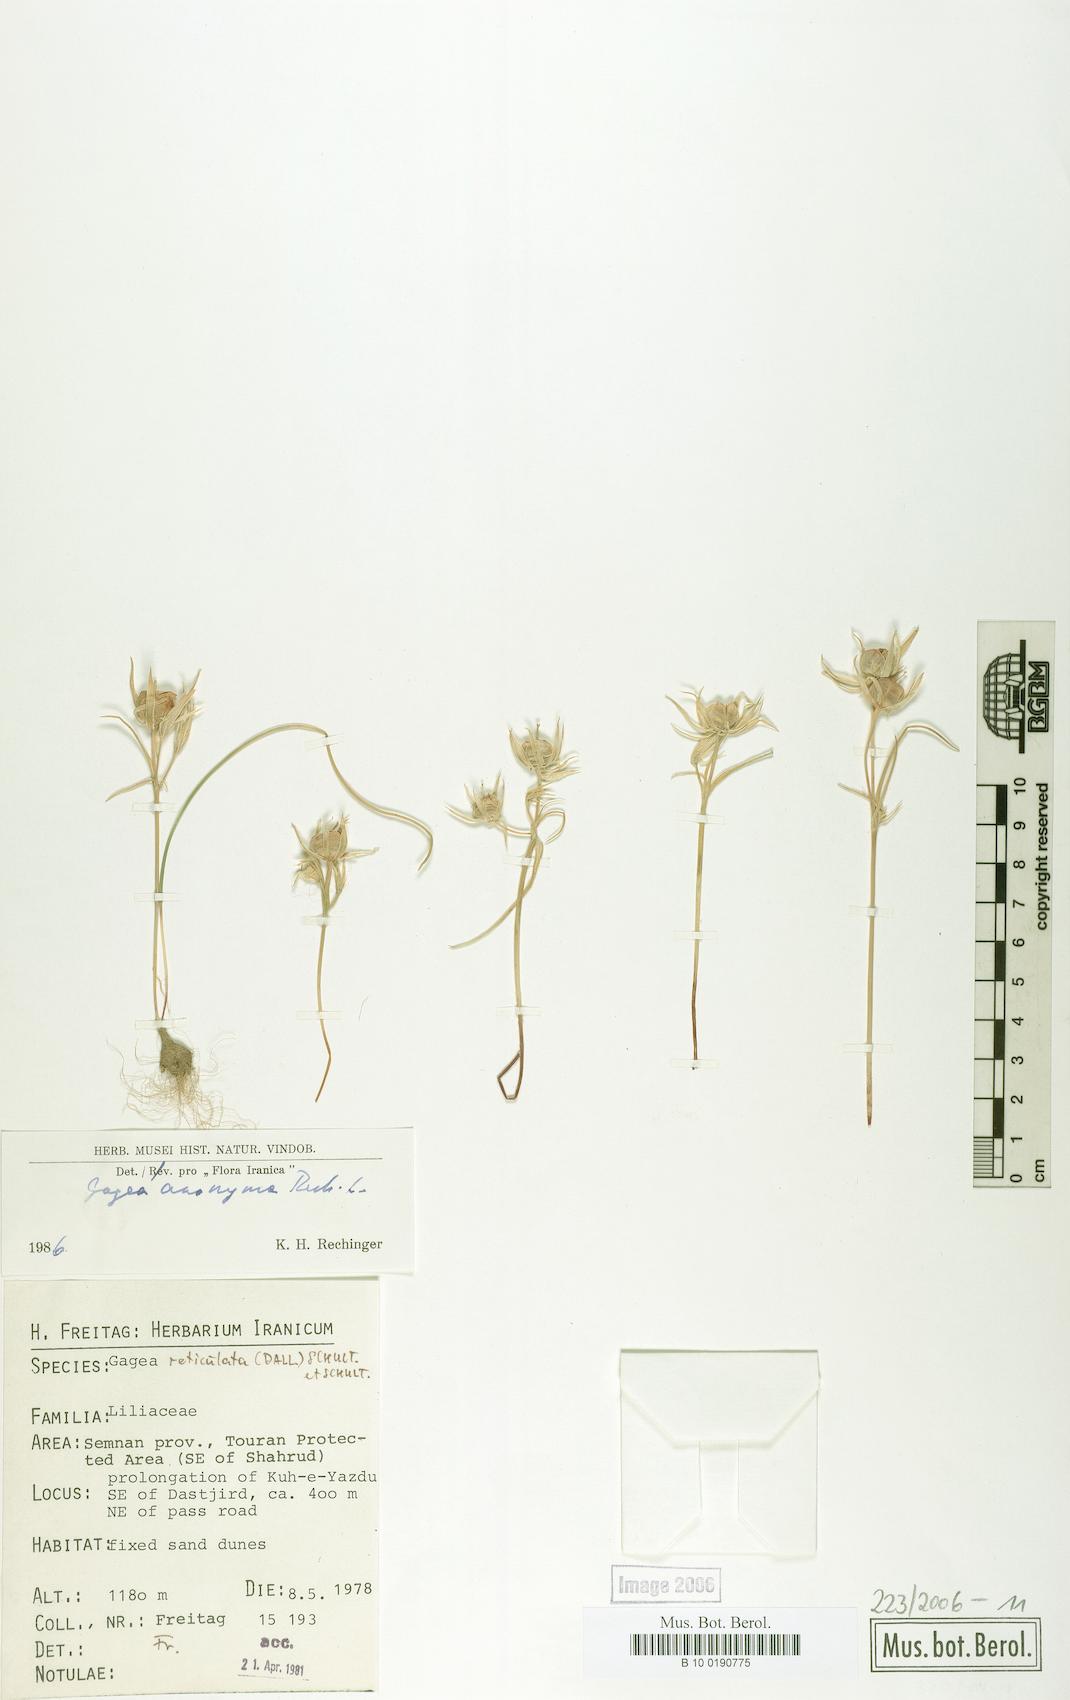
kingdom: Plantae
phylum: Tracheophyta
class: Liliopsida
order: Liliales
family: Liliaceae
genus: Gagea
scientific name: Gagea setifolia
